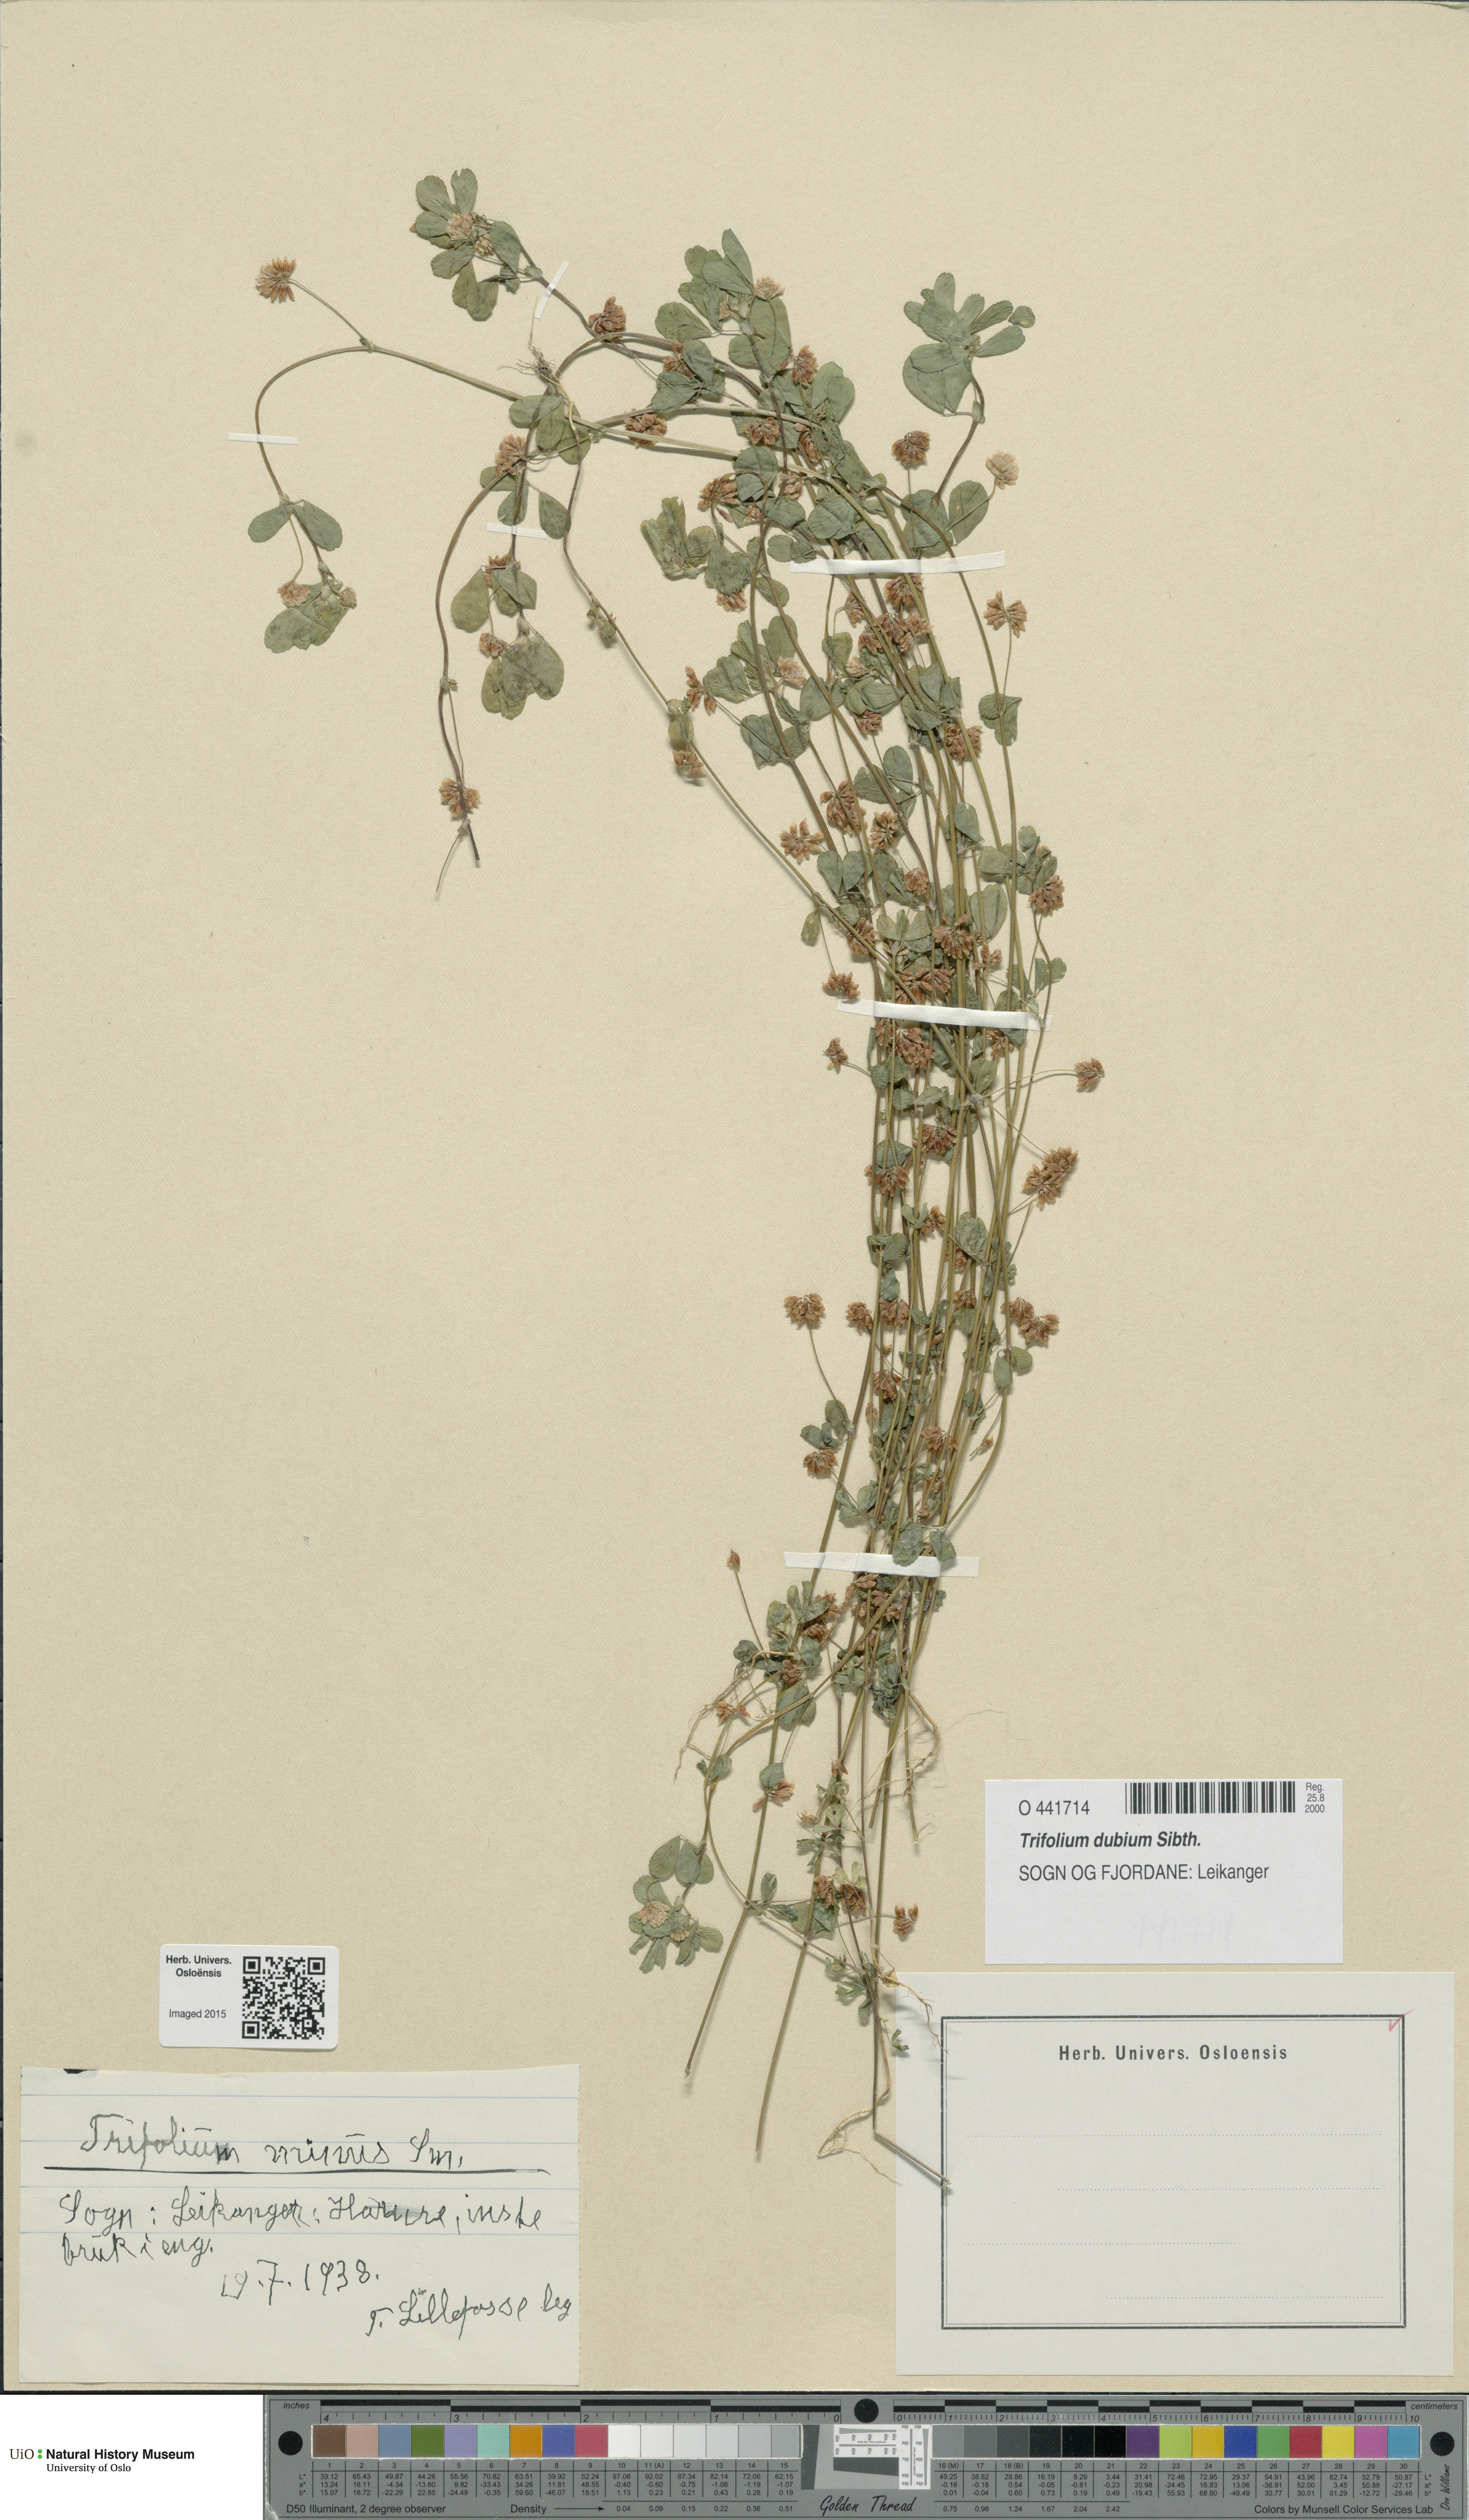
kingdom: Plantae
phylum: Tracheophyta
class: Magnoliopsida
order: Fabales
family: Fabaceae
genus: Trifolium
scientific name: Trifolium dubium
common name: Suckling clover
